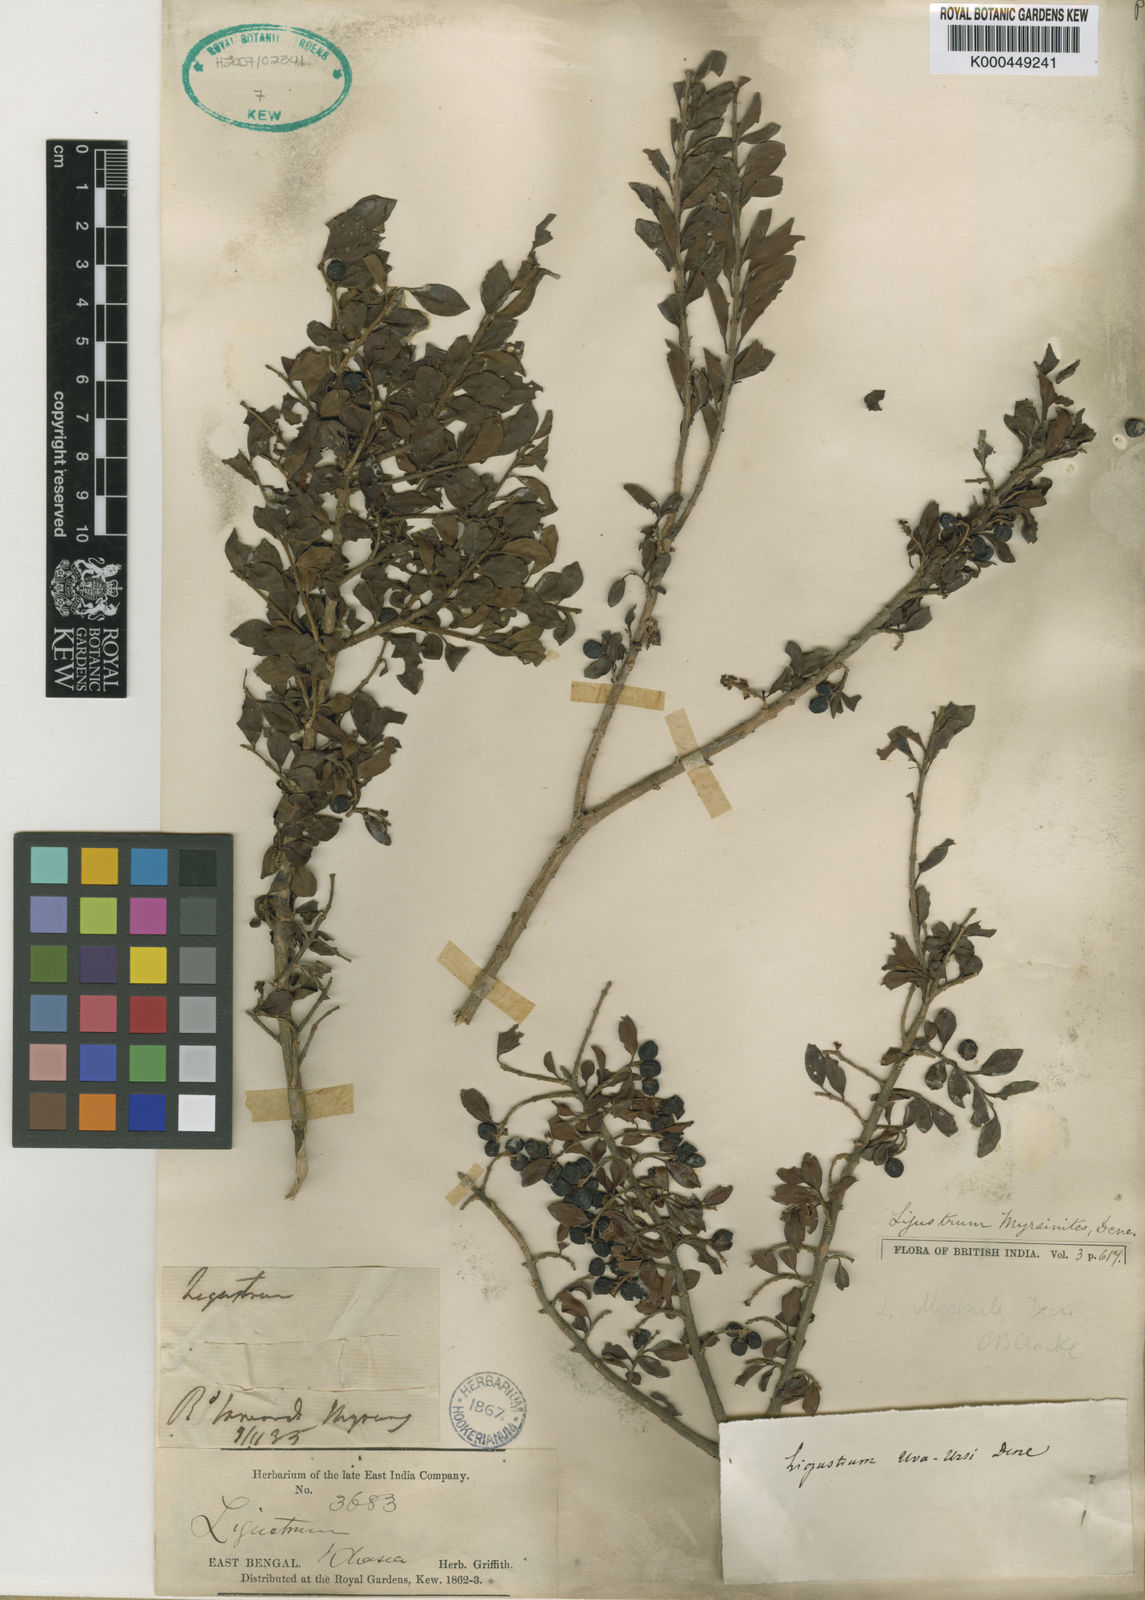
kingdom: Plantae
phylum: Tracheophyta
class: Magnoliopsida
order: Lamiales
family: Oleaceae
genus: Ligustrum
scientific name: Ligustrum robustum
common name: Tree privet
